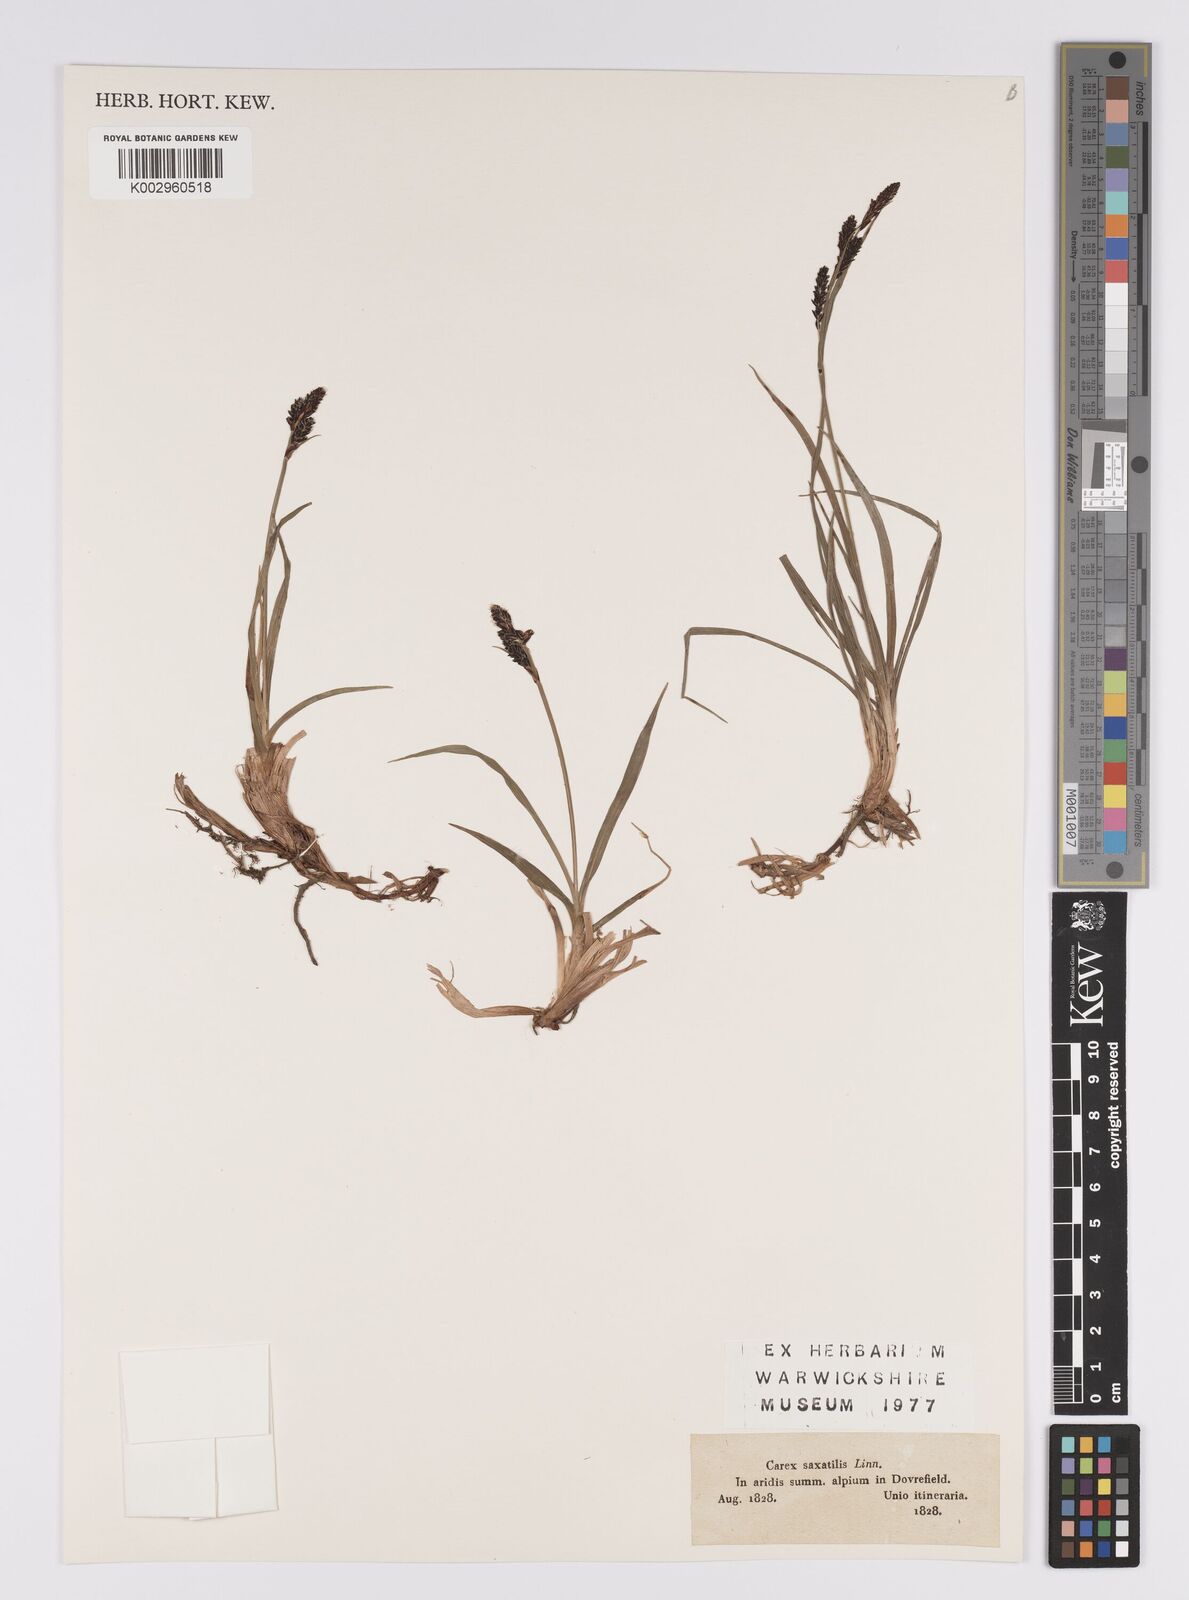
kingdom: Plantae
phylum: Tracheophyta
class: Liliopsida
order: Poales
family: Cyperaceae
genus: Carex
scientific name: Carex saxatilis
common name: Russet sedge
